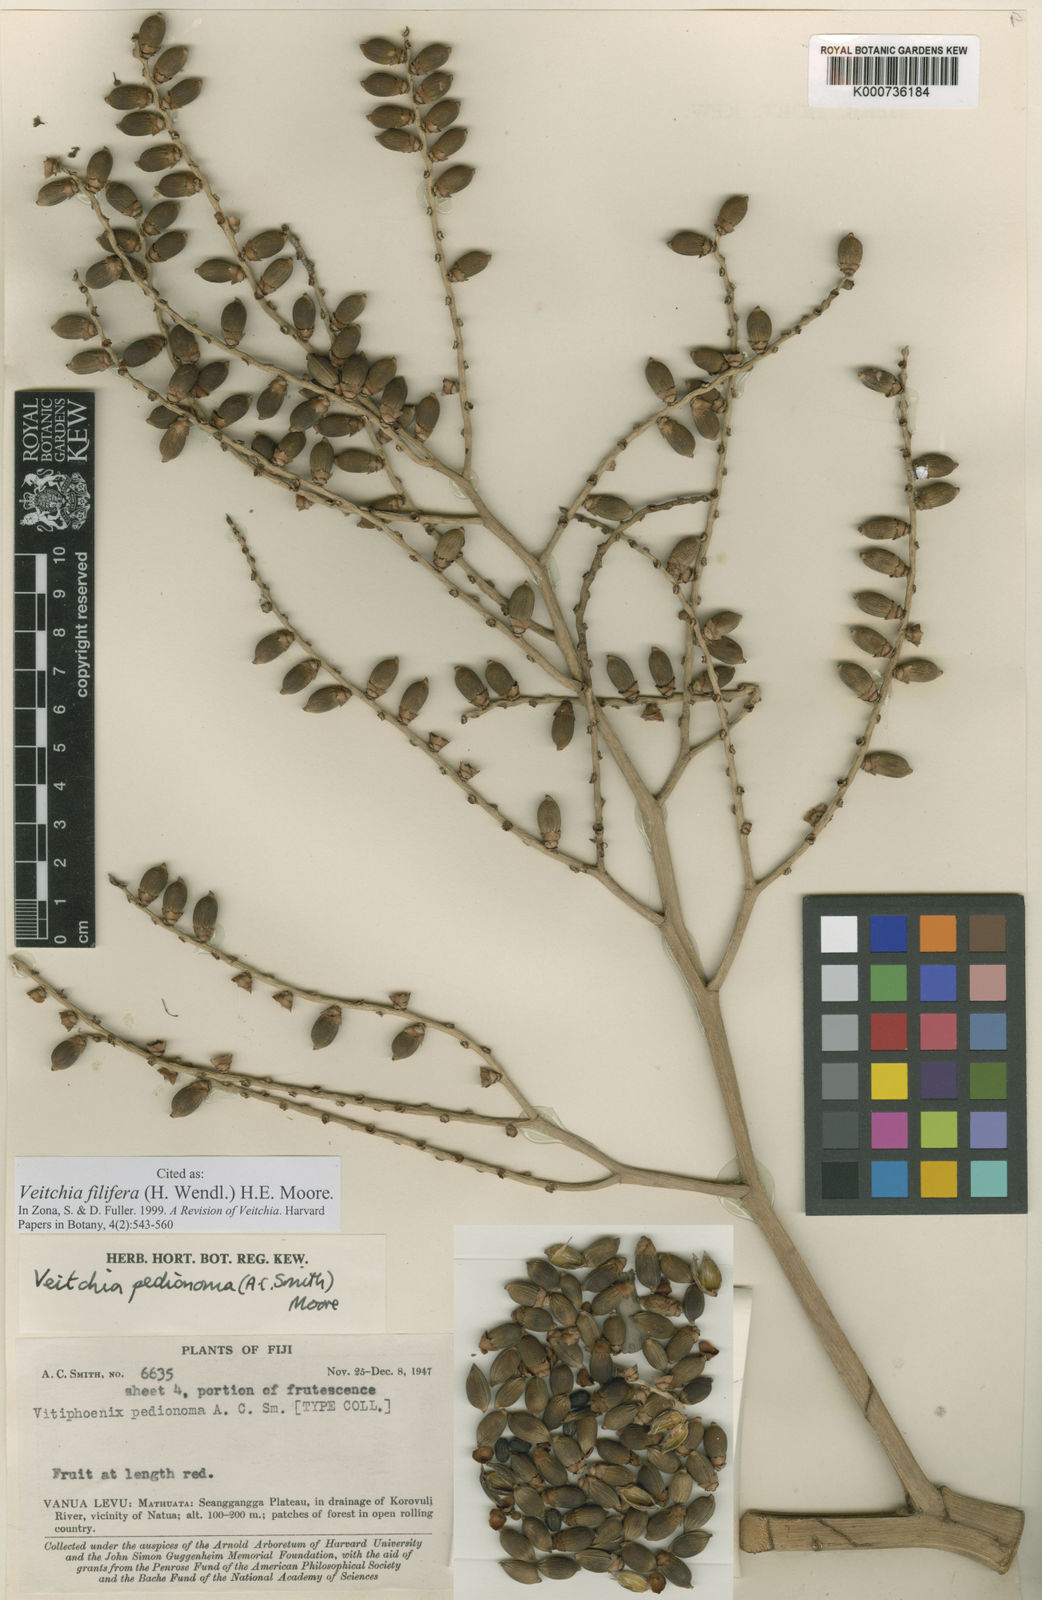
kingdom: Plantae
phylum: Tracheophyta
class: Liliopsida
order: Arecales
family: Arecaceae
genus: Veitchia
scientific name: Veitchia filifera
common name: Cagicake
